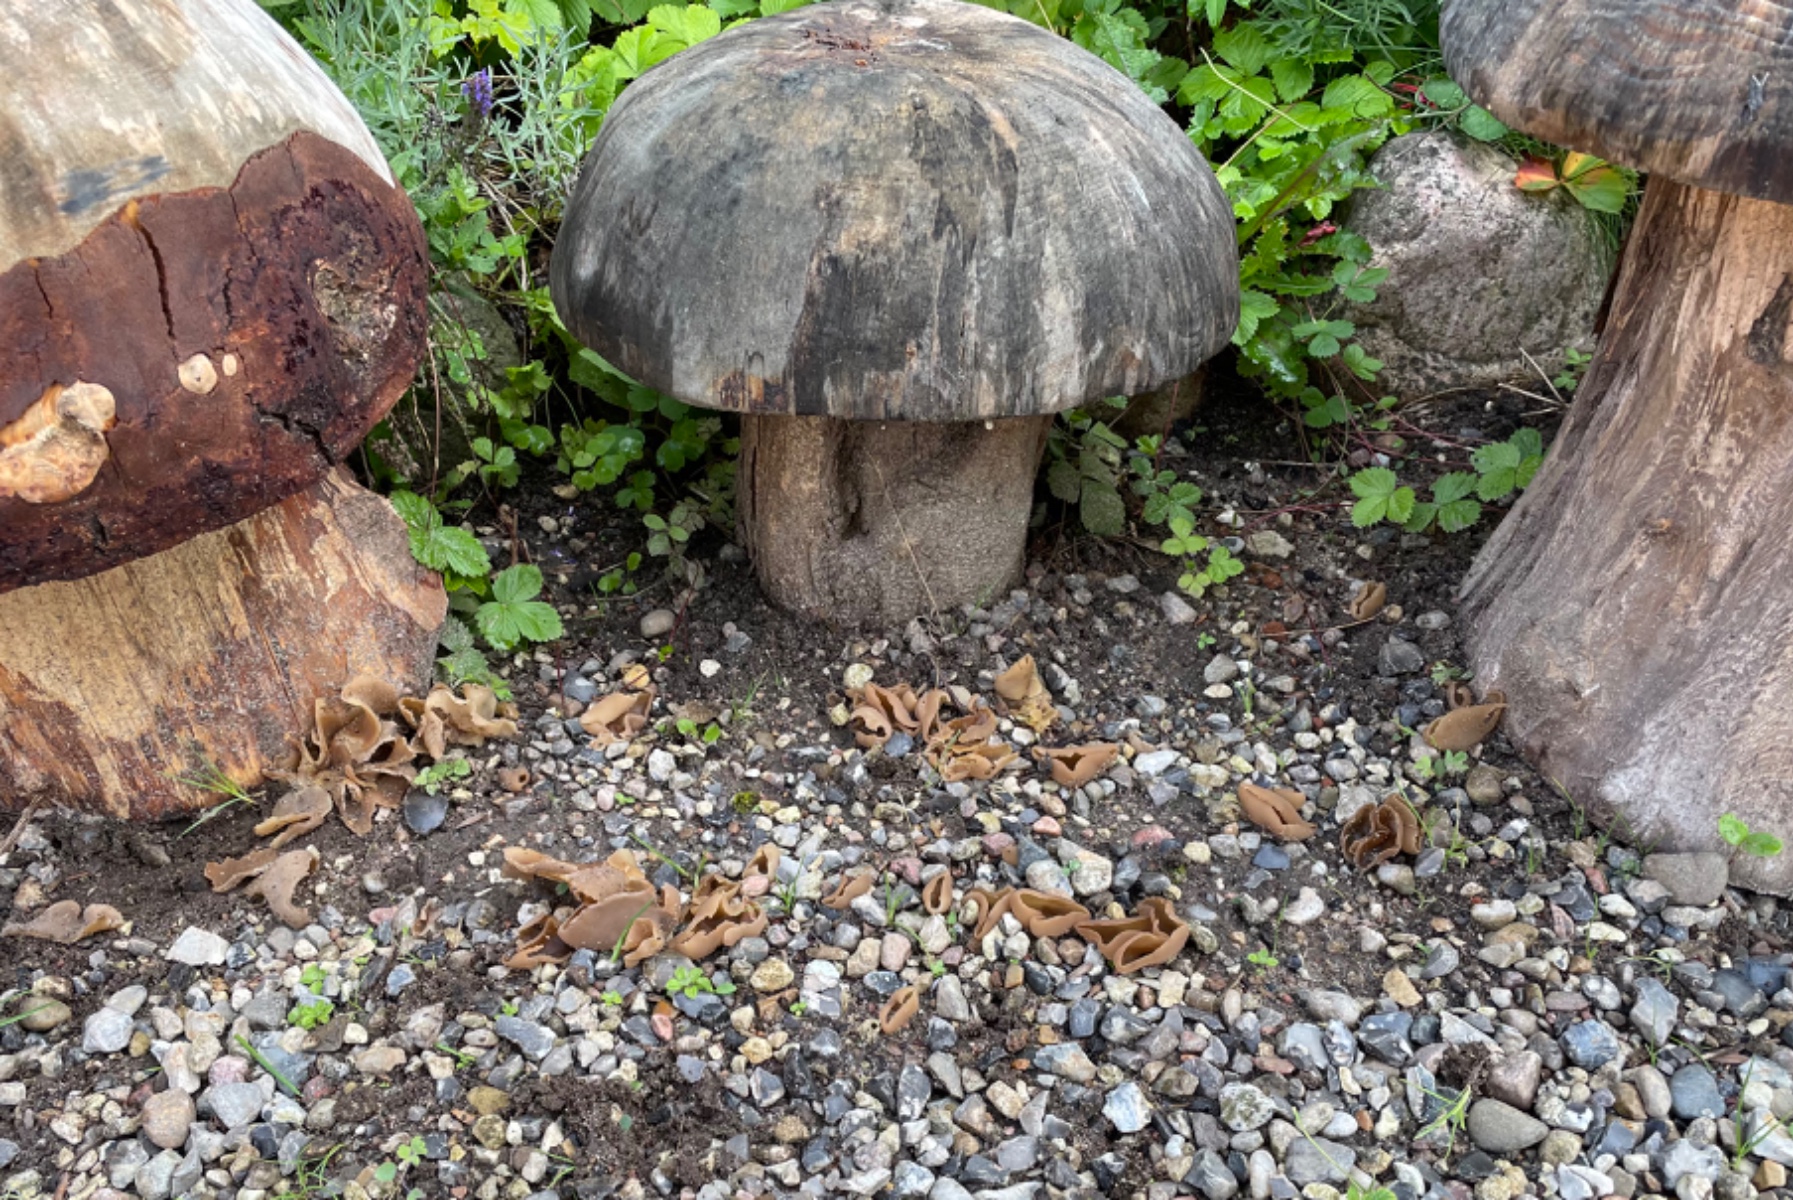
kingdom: Fungi
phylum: Ascomycota
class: Pezizomycetes
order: Pezizales
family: Pezizaceae
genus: Peziza
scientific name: Peziza
